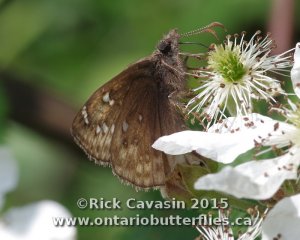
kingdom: Animalia
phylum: Arthropoda
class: Insecta
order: Lepidoptera
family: Hesperiidae
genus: Gesta
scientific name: Gesta
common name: Juvenal's Duskywing
